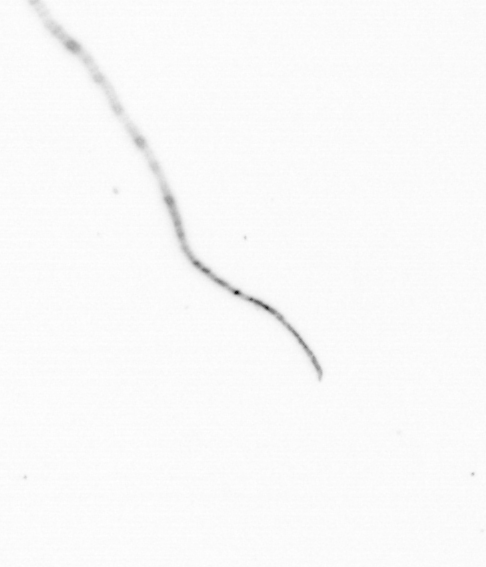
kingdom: Chromista
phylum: Ochrophyta
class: Bacillariophyceae
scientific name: Bacillariophyceae
